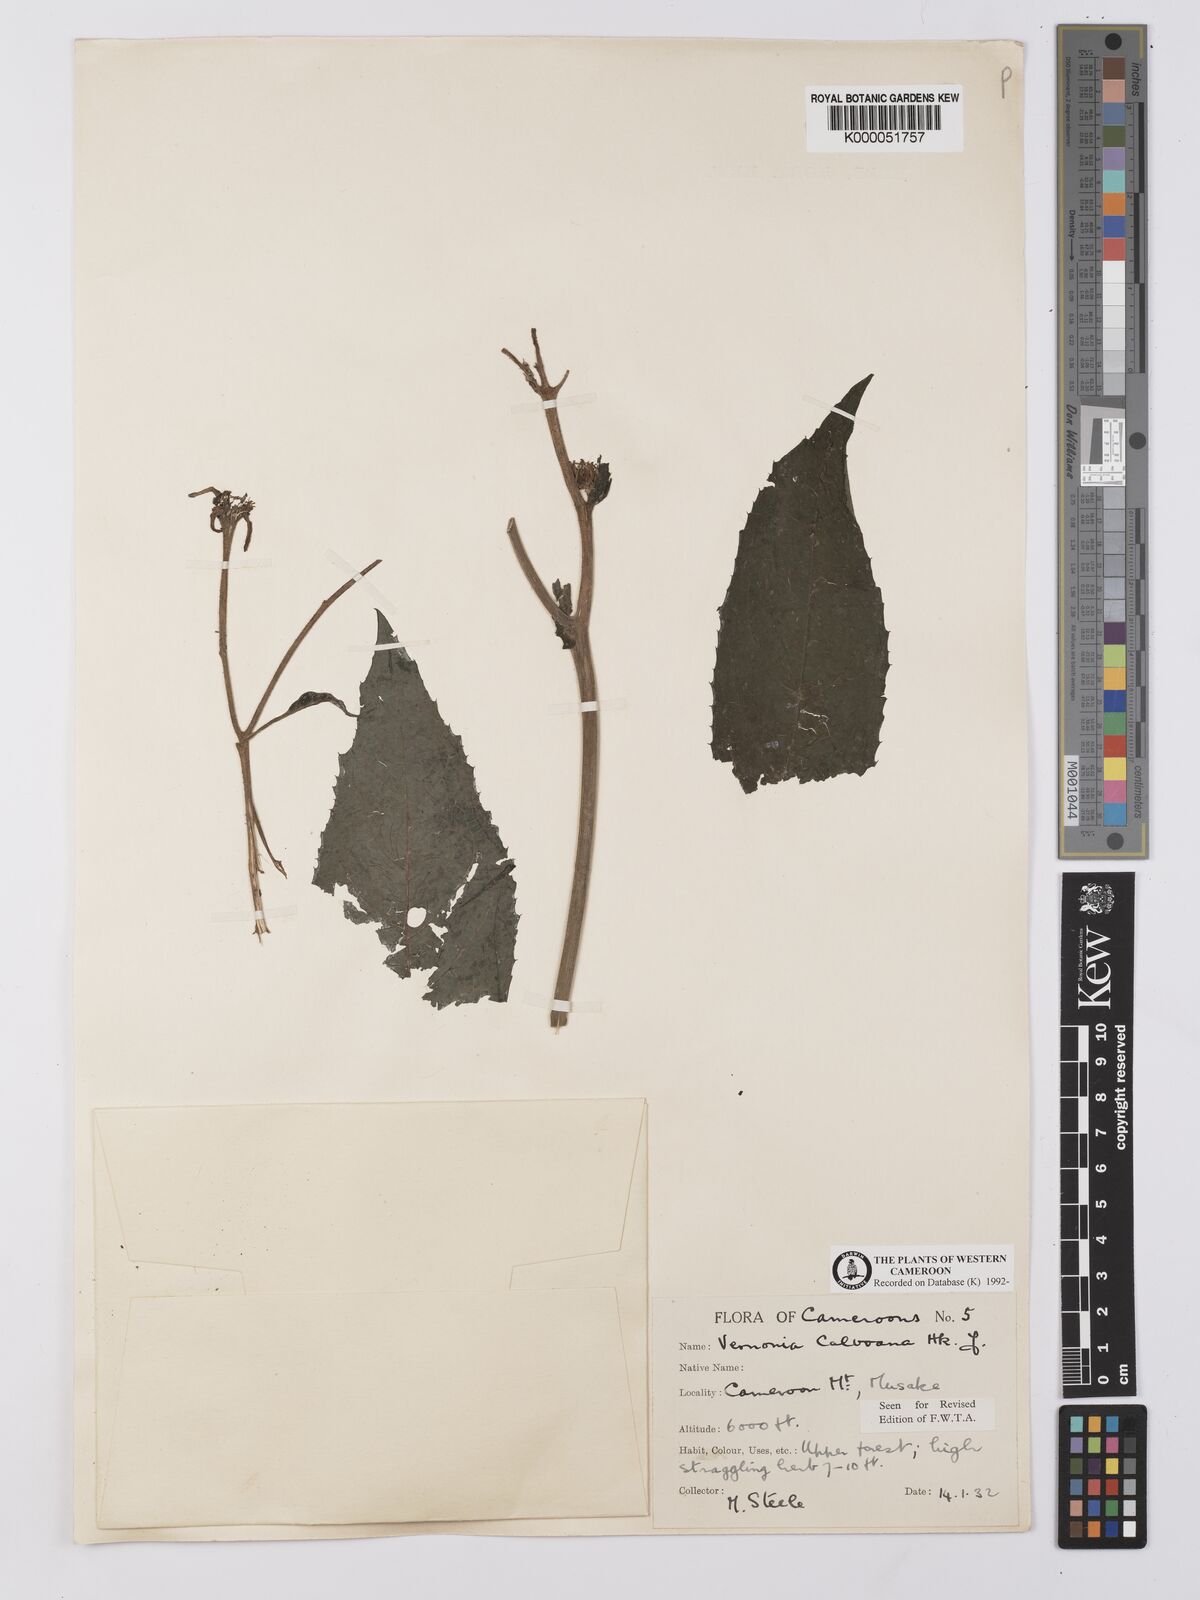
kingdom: Plantae
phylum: Tracheophyta
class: Magnoliopsida
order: Asterales
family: Asteraceae
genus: Baccharoides
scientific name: Baccharoides hymenolepis
